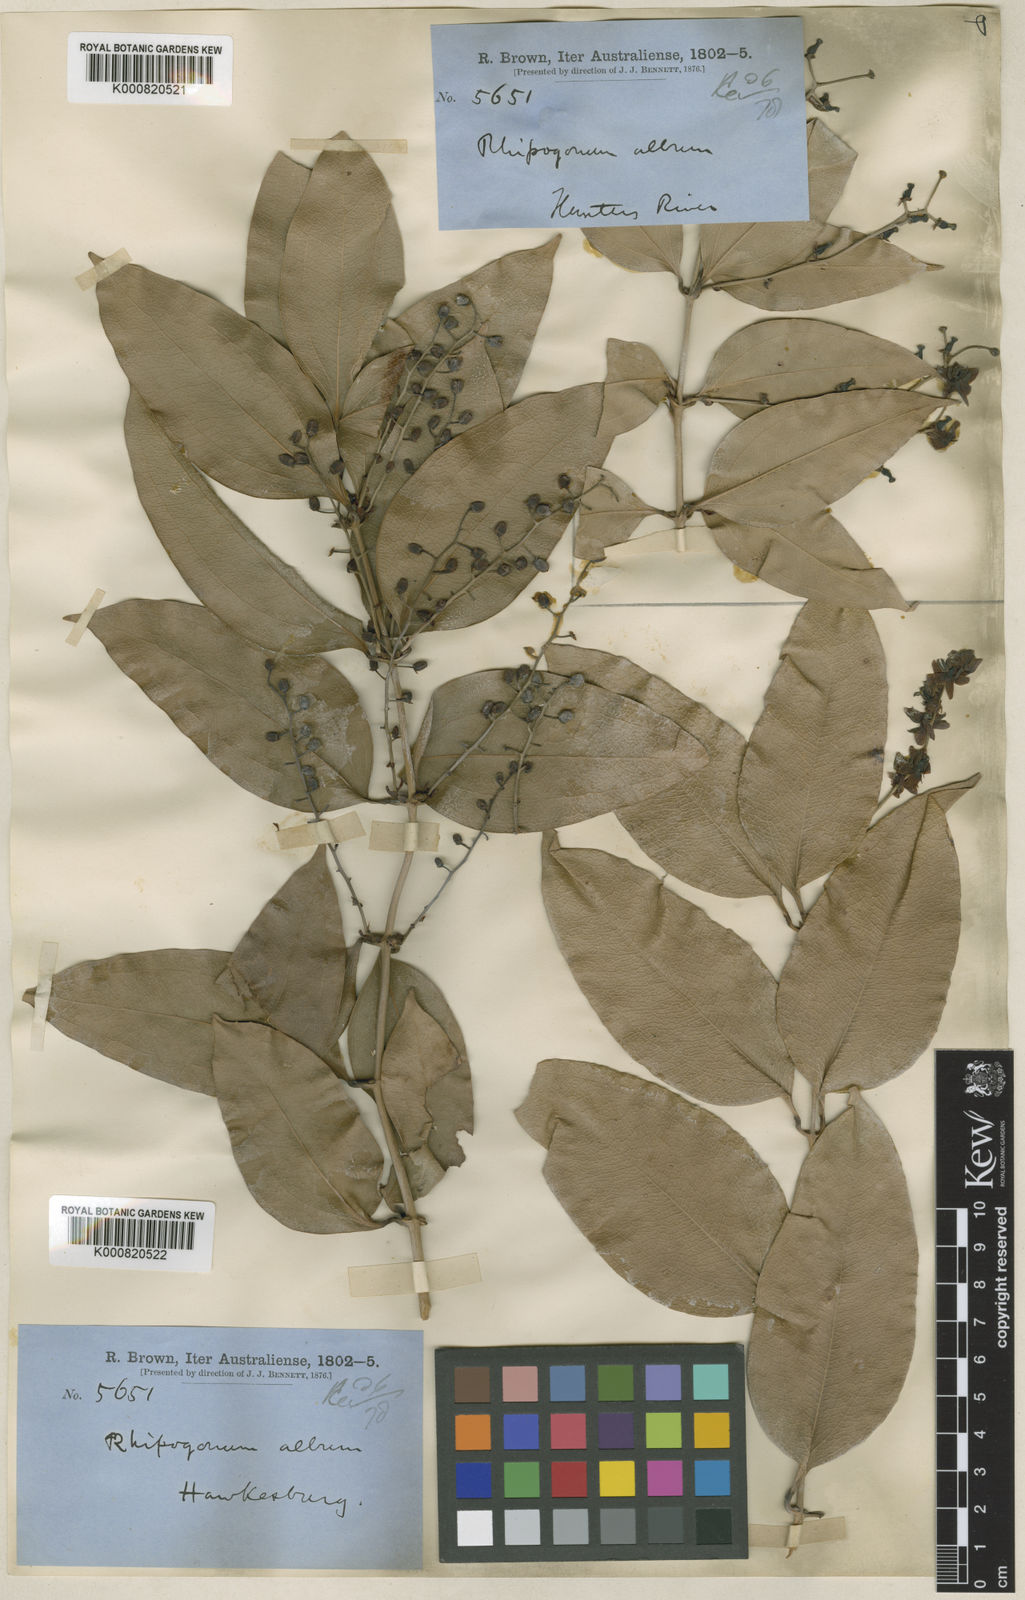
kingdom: Plantae
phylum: Tracheophyta
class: Liliopsida
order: Liliales
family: Ripogonaceae
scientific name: Ripogonaceae
